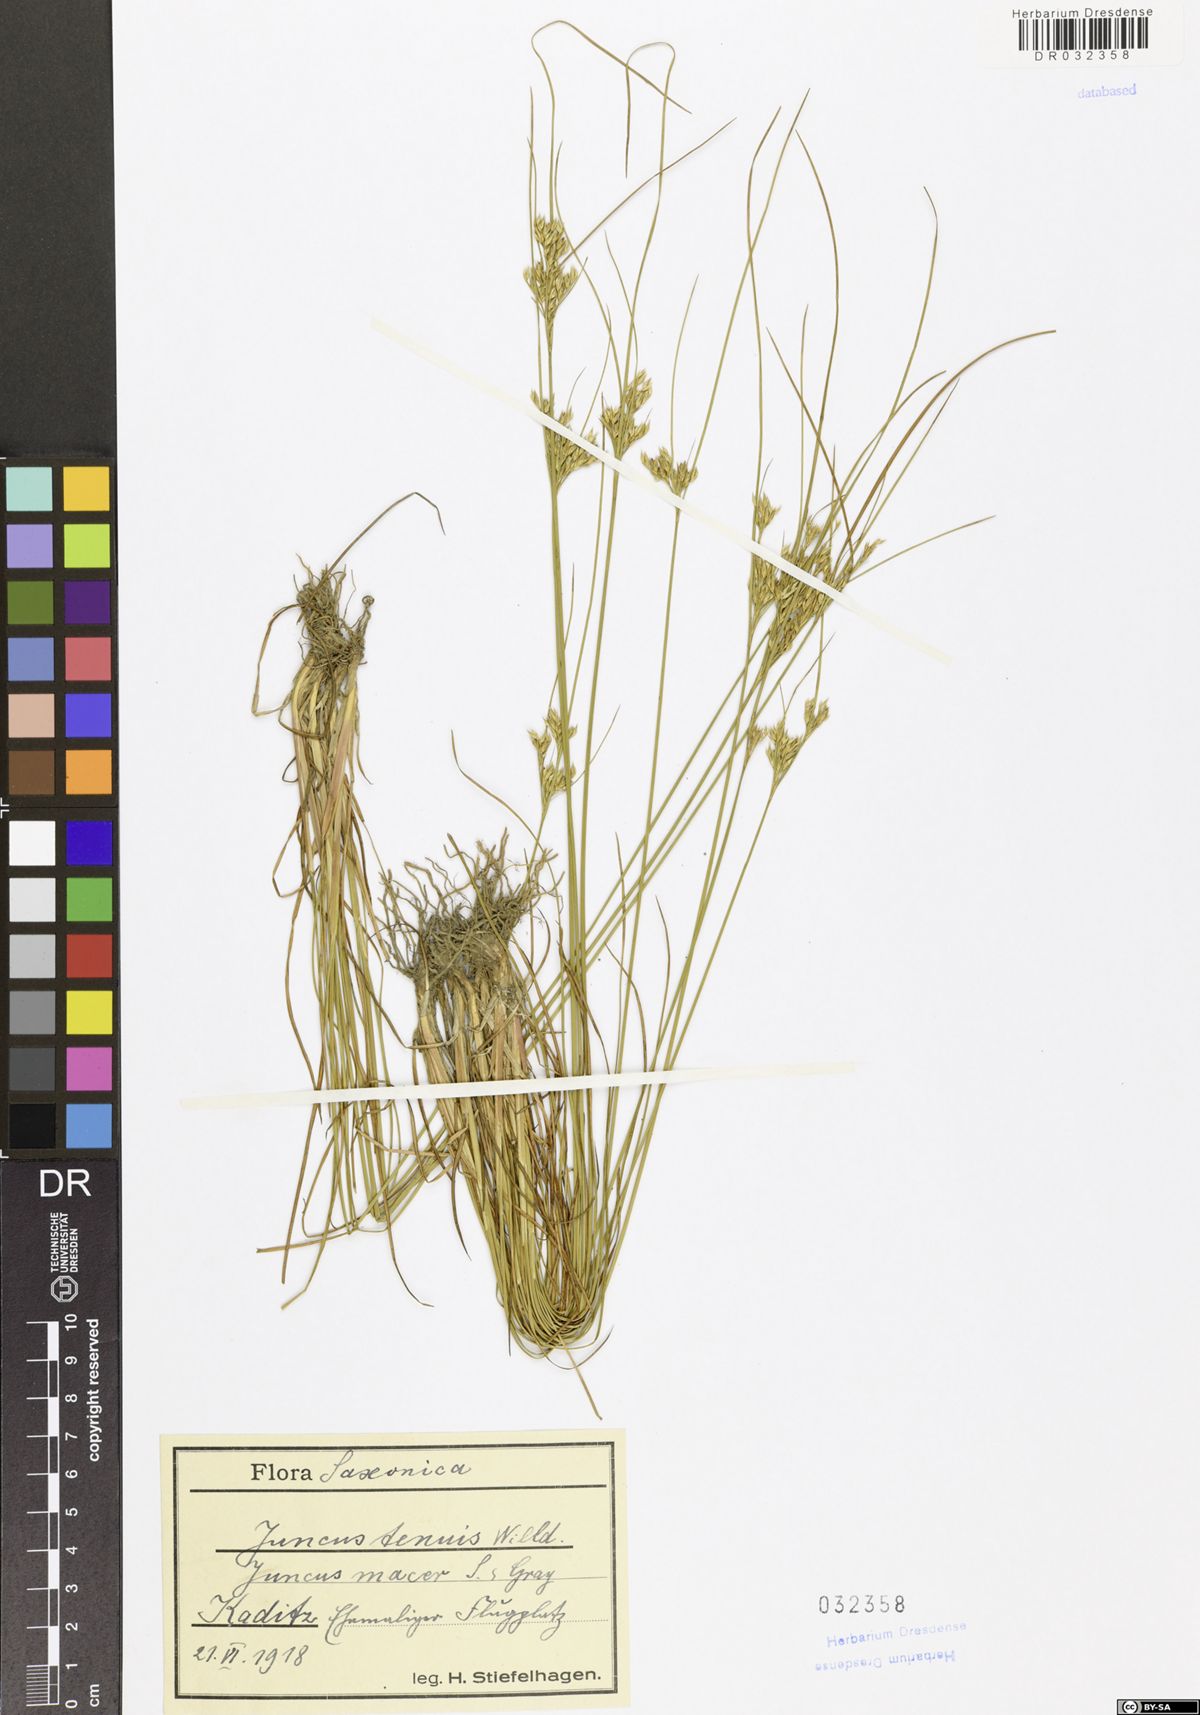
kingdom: Plantae
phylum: Tracheophyta
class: Liliopsida
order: Poales
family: Juncaceae
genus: Juncus
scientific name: Juncus tenuis
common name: Slender rush
